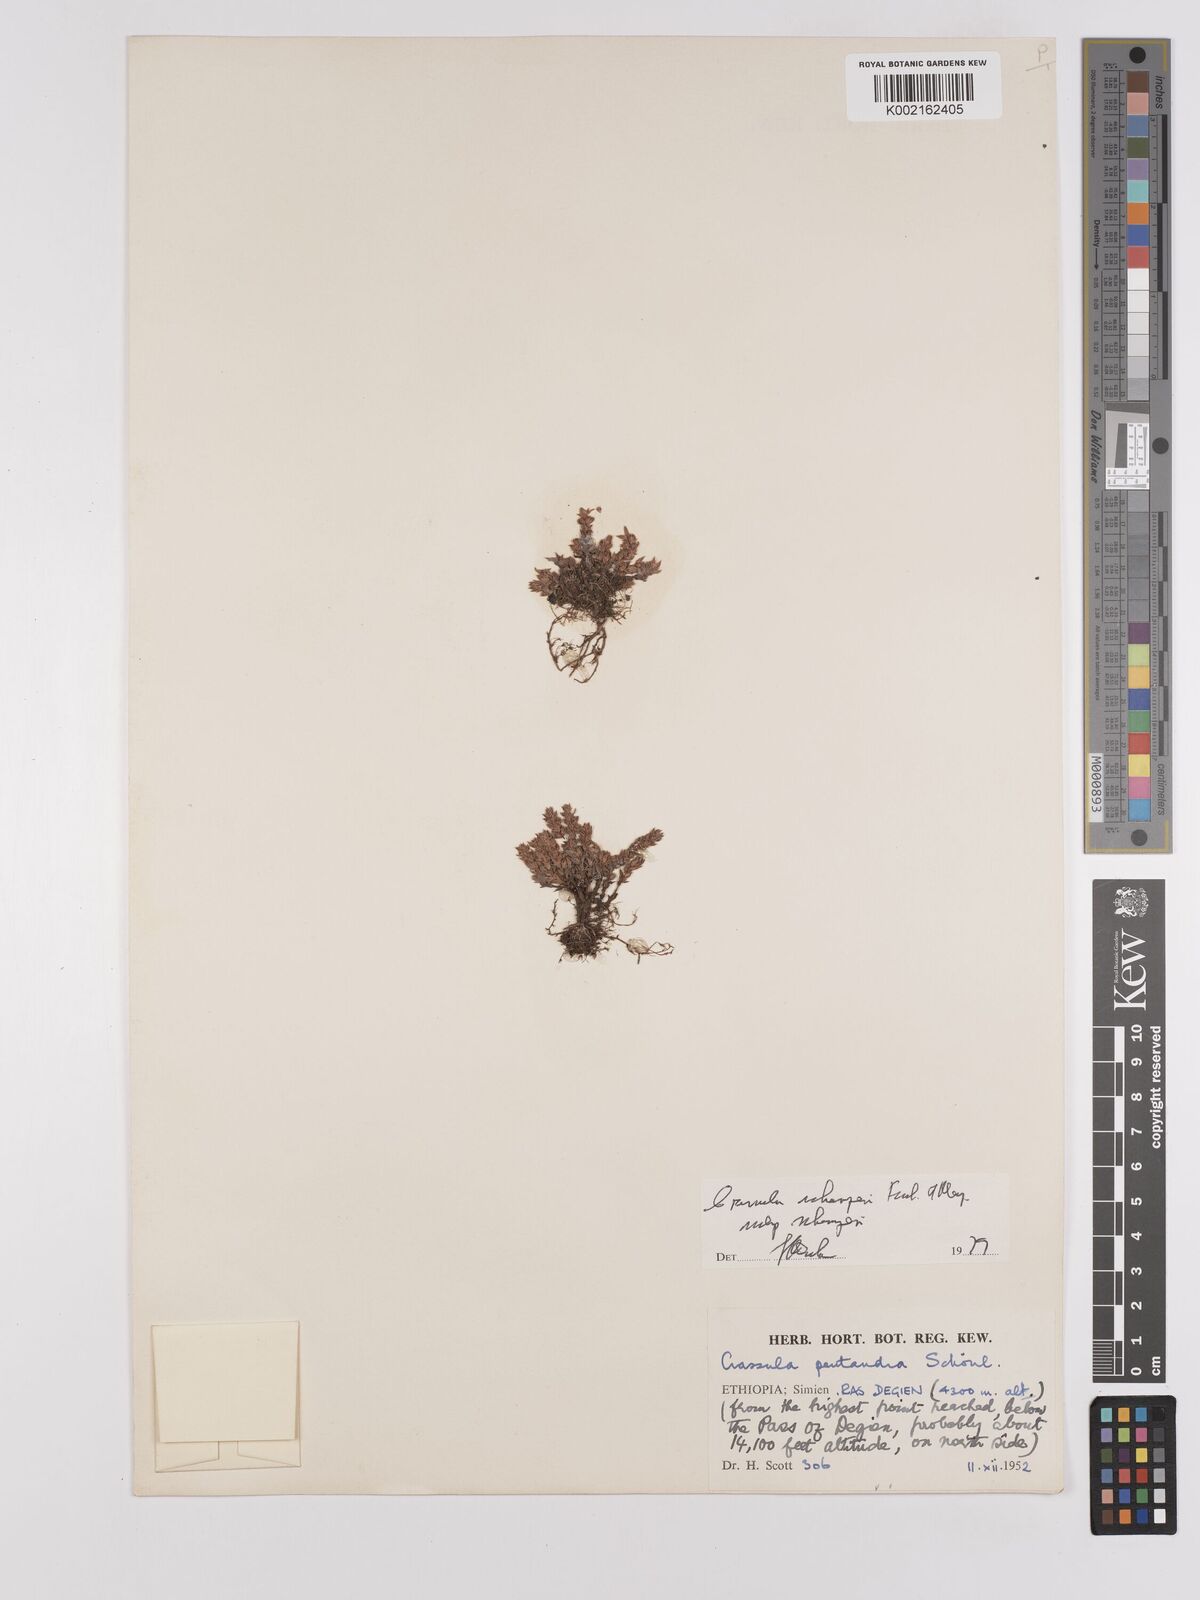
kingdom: Plantae
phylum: Tracheophyta
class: Magnoliopsida
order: Saxifragales
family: Crassulaceae
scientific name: Crassulaceae
